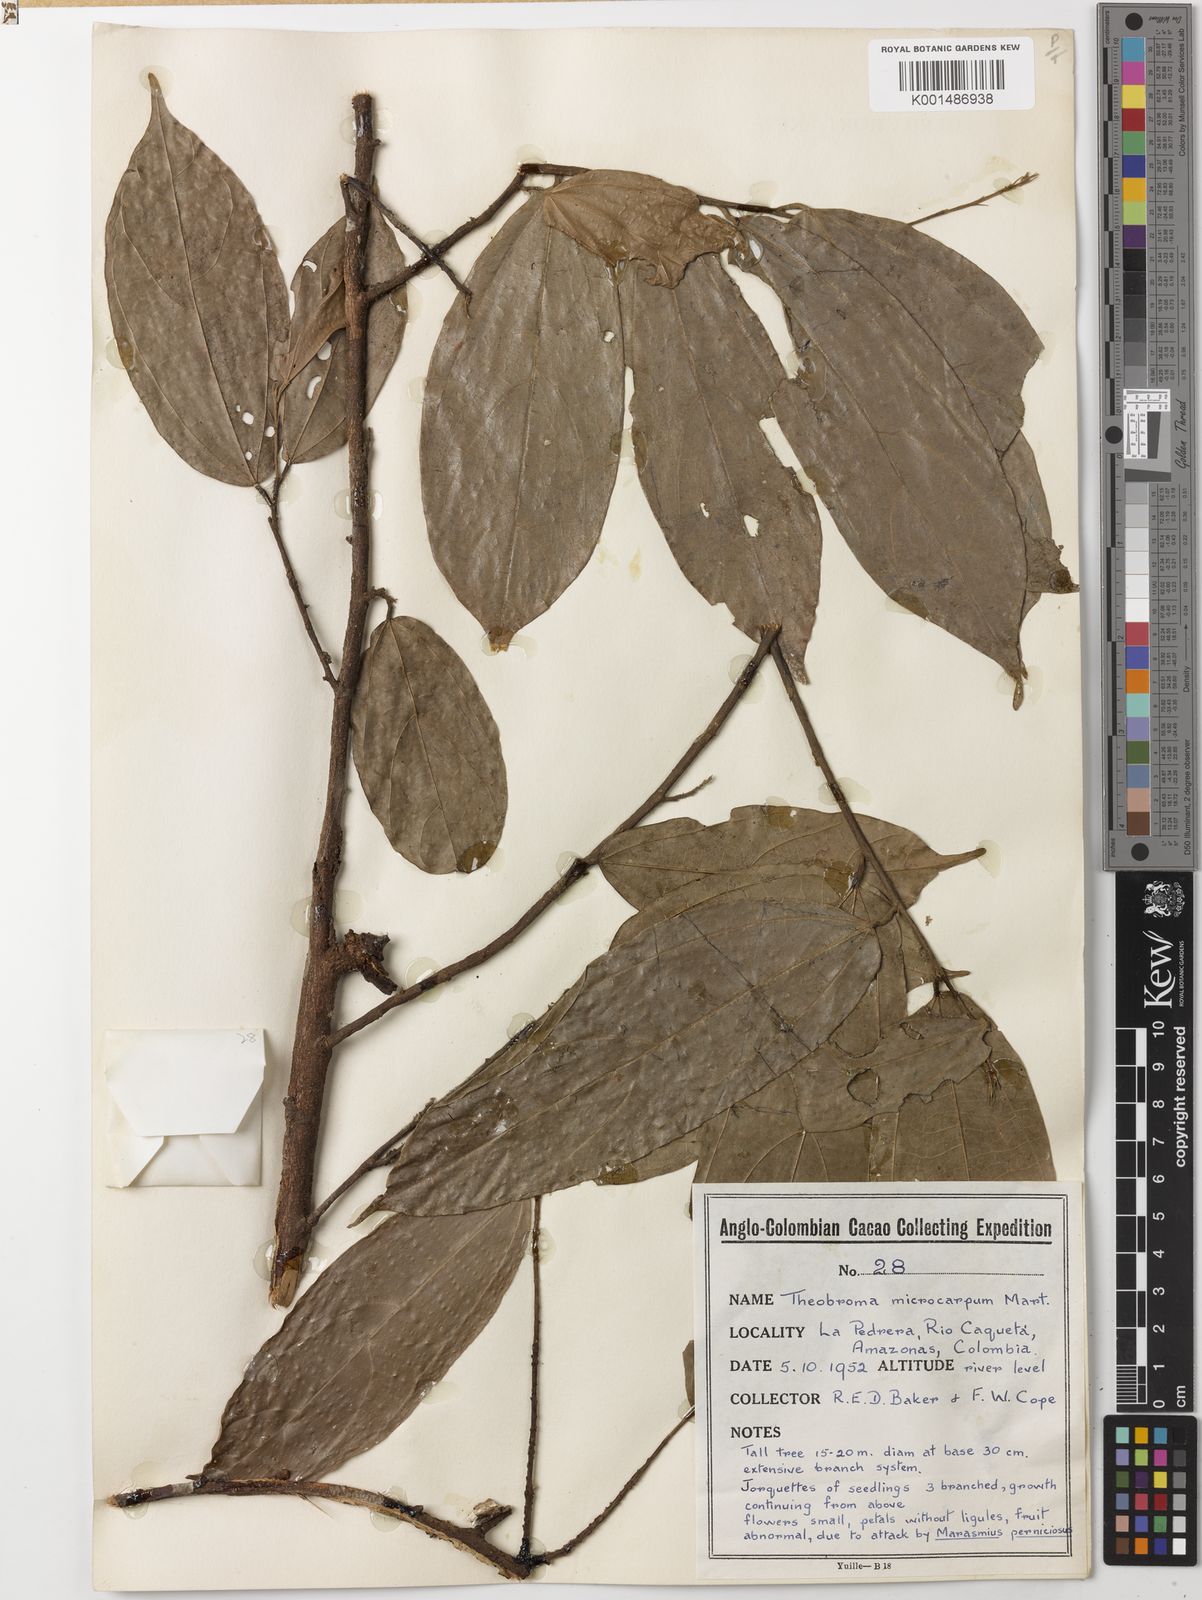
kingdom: Plantae
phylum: Tracheophyta
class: Magnoliopsida
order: Malvales
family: Malvaceae
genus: Theobroma
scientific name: Theobroma microcarpum
